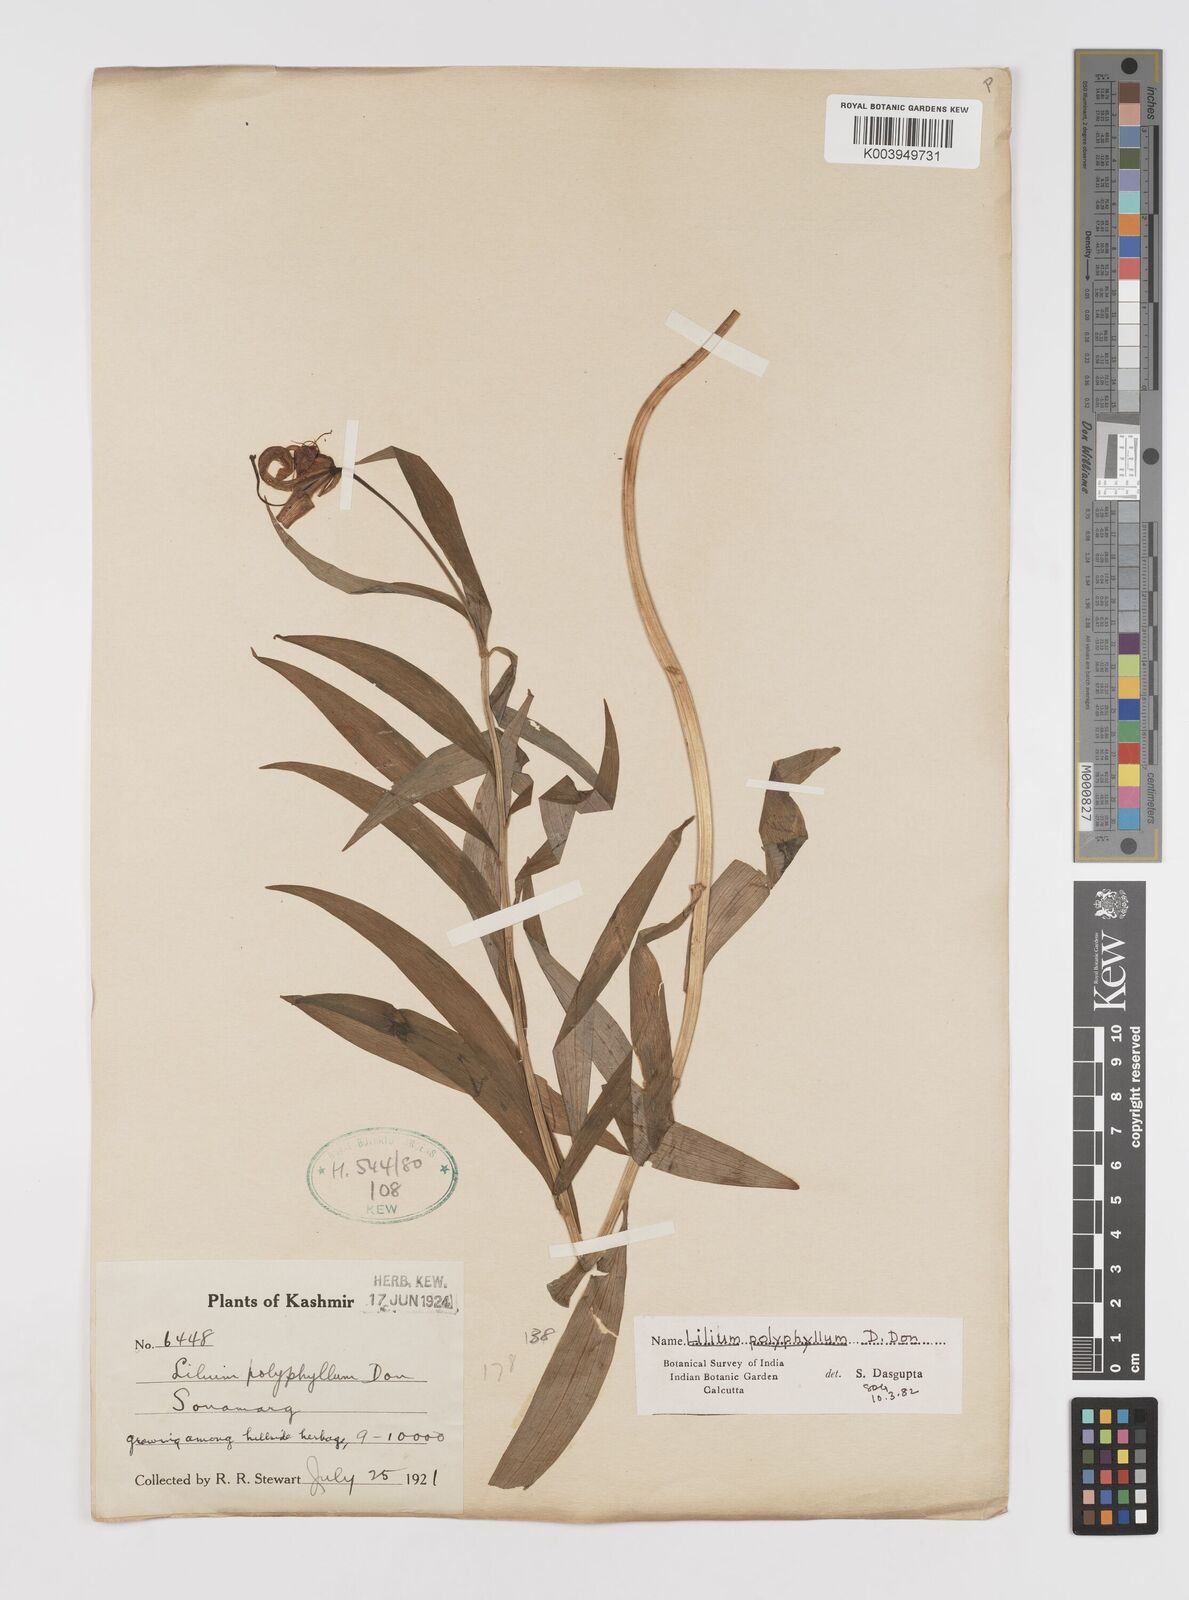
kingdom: Plantae
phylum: Tracheophyta
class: Liliopsida
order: Liliales
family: Liliaceae
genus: Lilium
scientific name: Lilium polyphyllum
